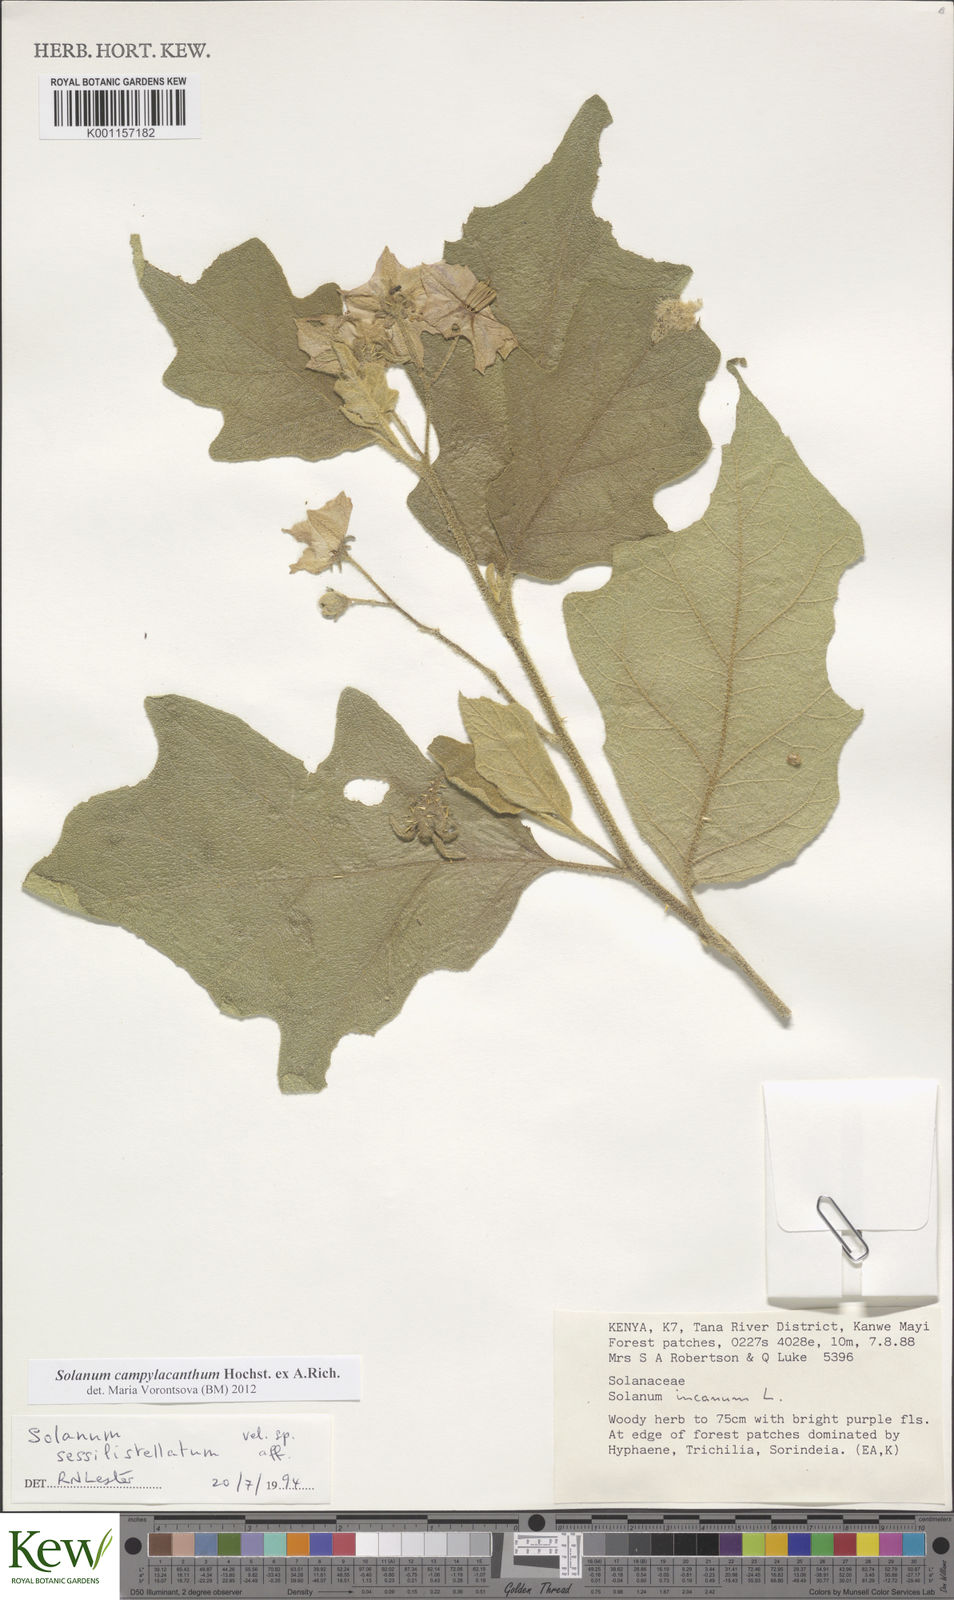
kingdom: Plantae
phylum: Tracheophyta
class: Magnoliopsida
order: Solanales
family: Solanaceae
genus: Solanum
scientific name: Solanum campylacanthum
